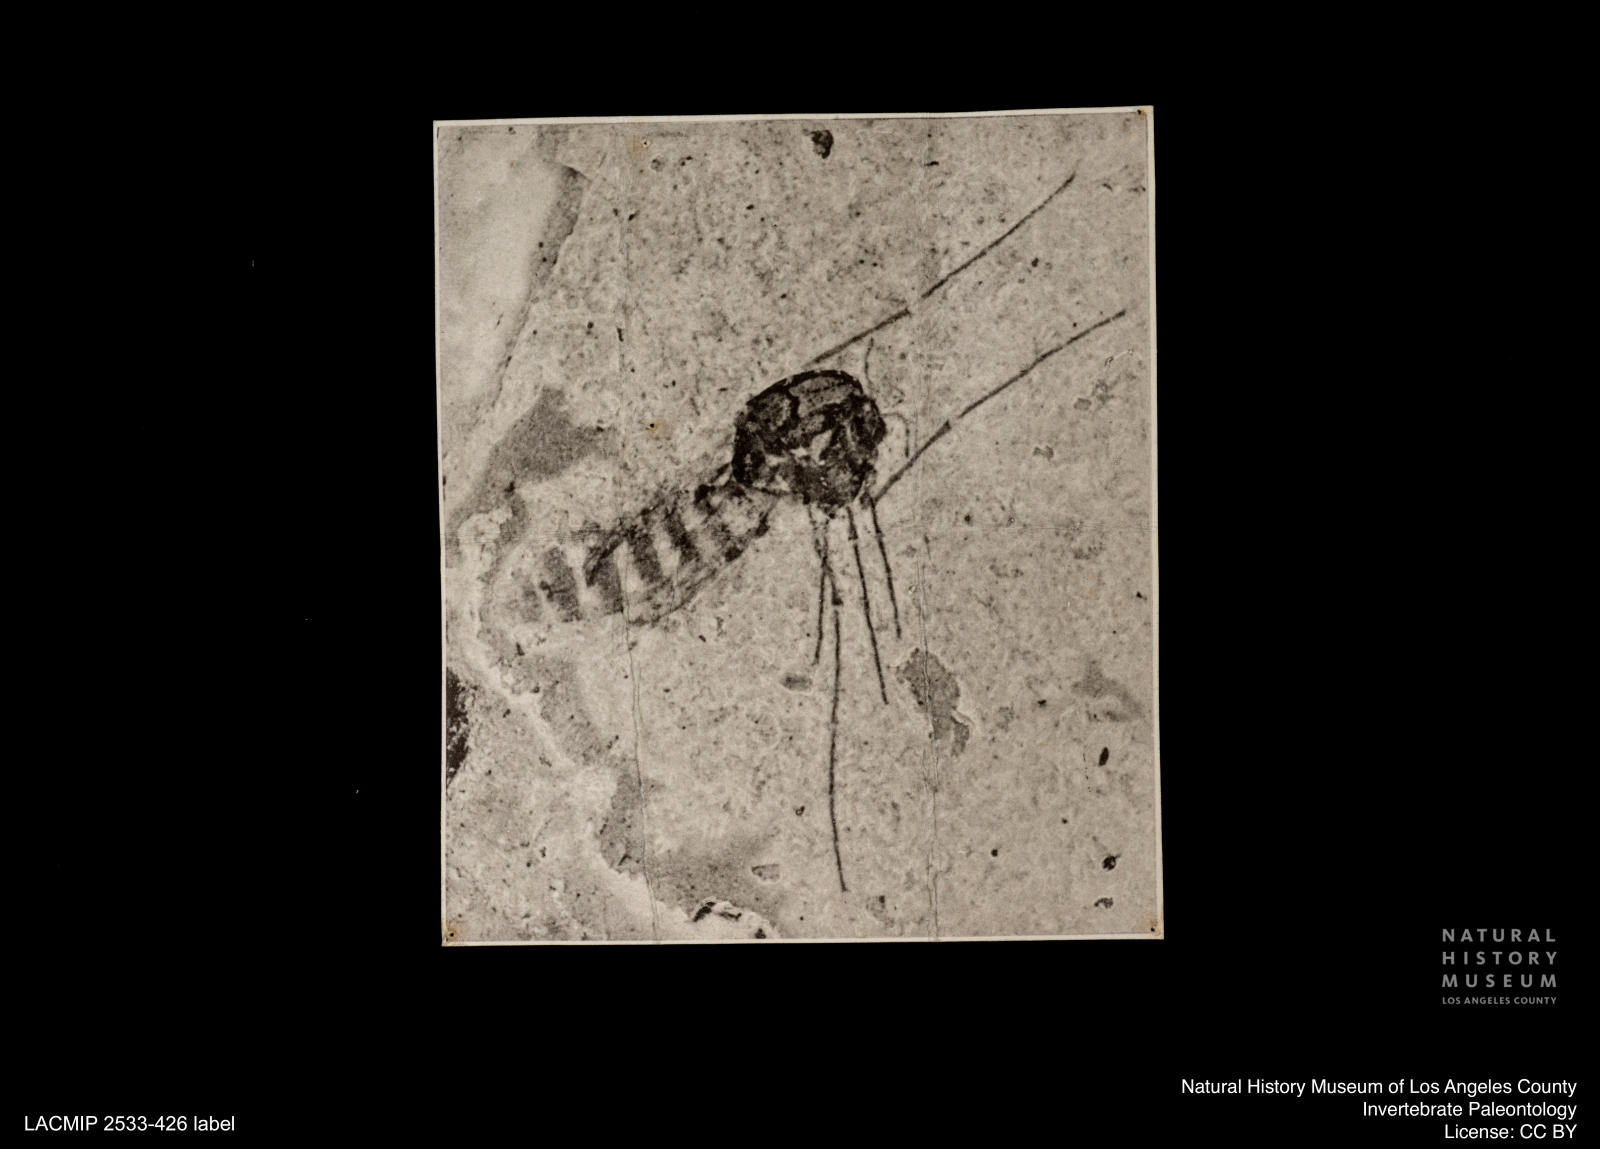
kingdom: Animalia
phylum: Arthropoda
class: Insecta
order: Diptera
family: Chironomidae
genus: Tanypus
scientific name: Tanypus thienemanni
